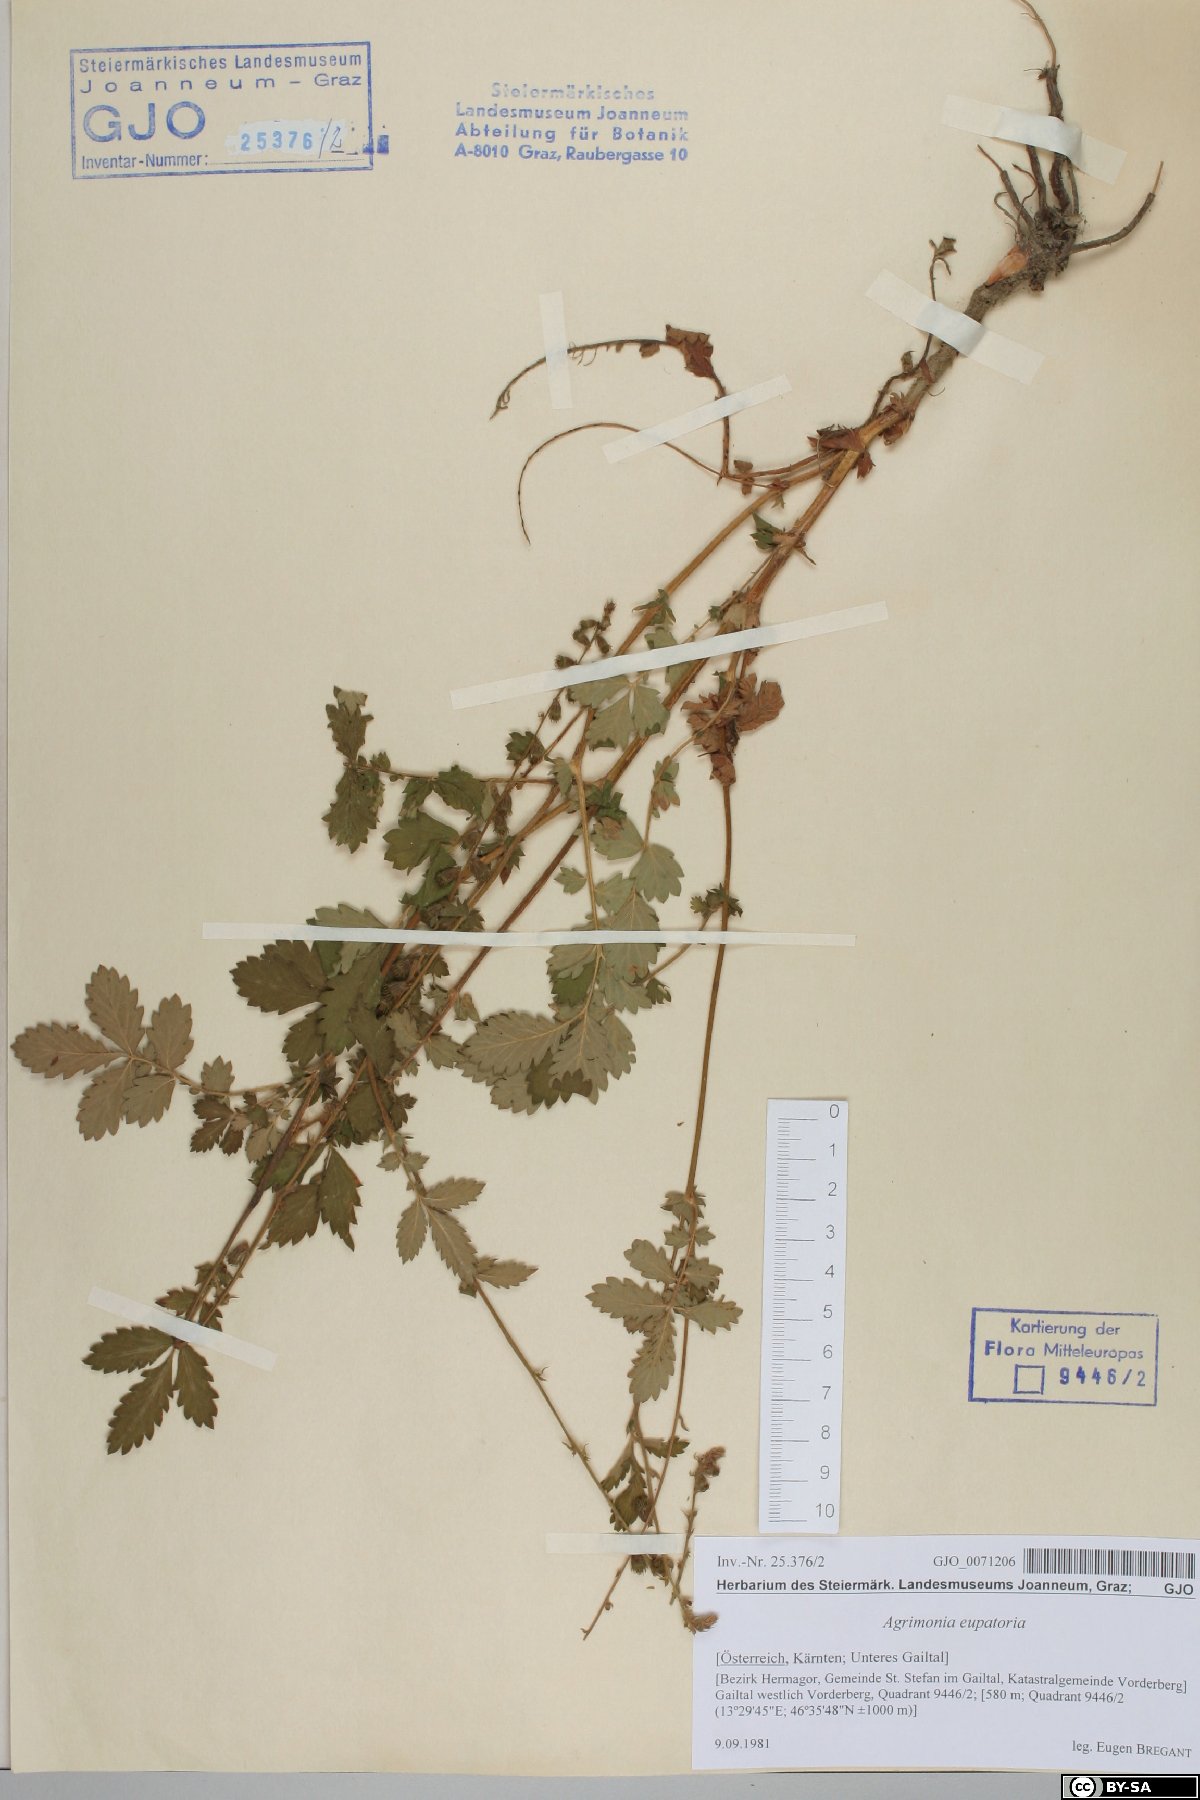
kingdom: Plantae
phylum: Tracheophyta
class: Magnoliopsida
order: Rosales
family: Rosaceae
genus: Agrimonia
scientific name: Agrimonia eupatoria
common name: Agrimony
